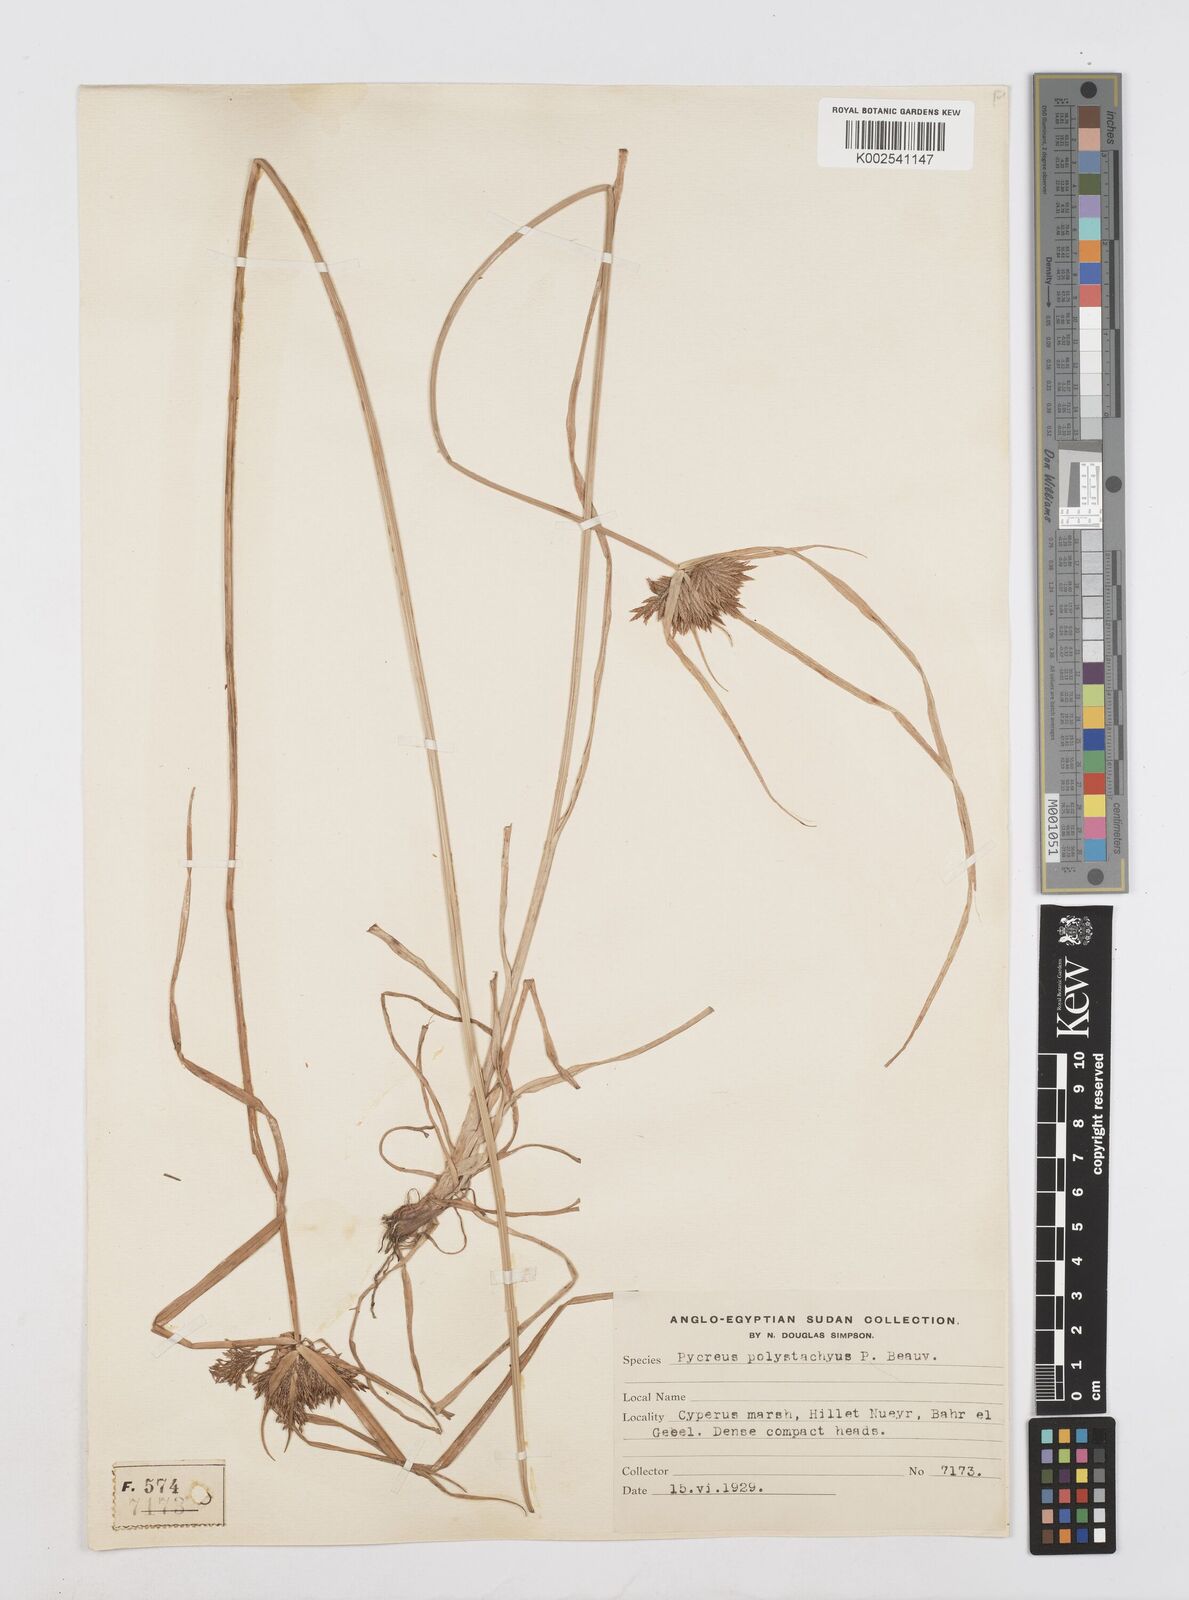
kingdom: Plantae
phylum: Tracheophyta
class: Liliopsida
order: Poales
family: Cyperaceae
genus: Cyperus
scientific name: Cyperus polystachyos
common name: Bunchy flat sedge
